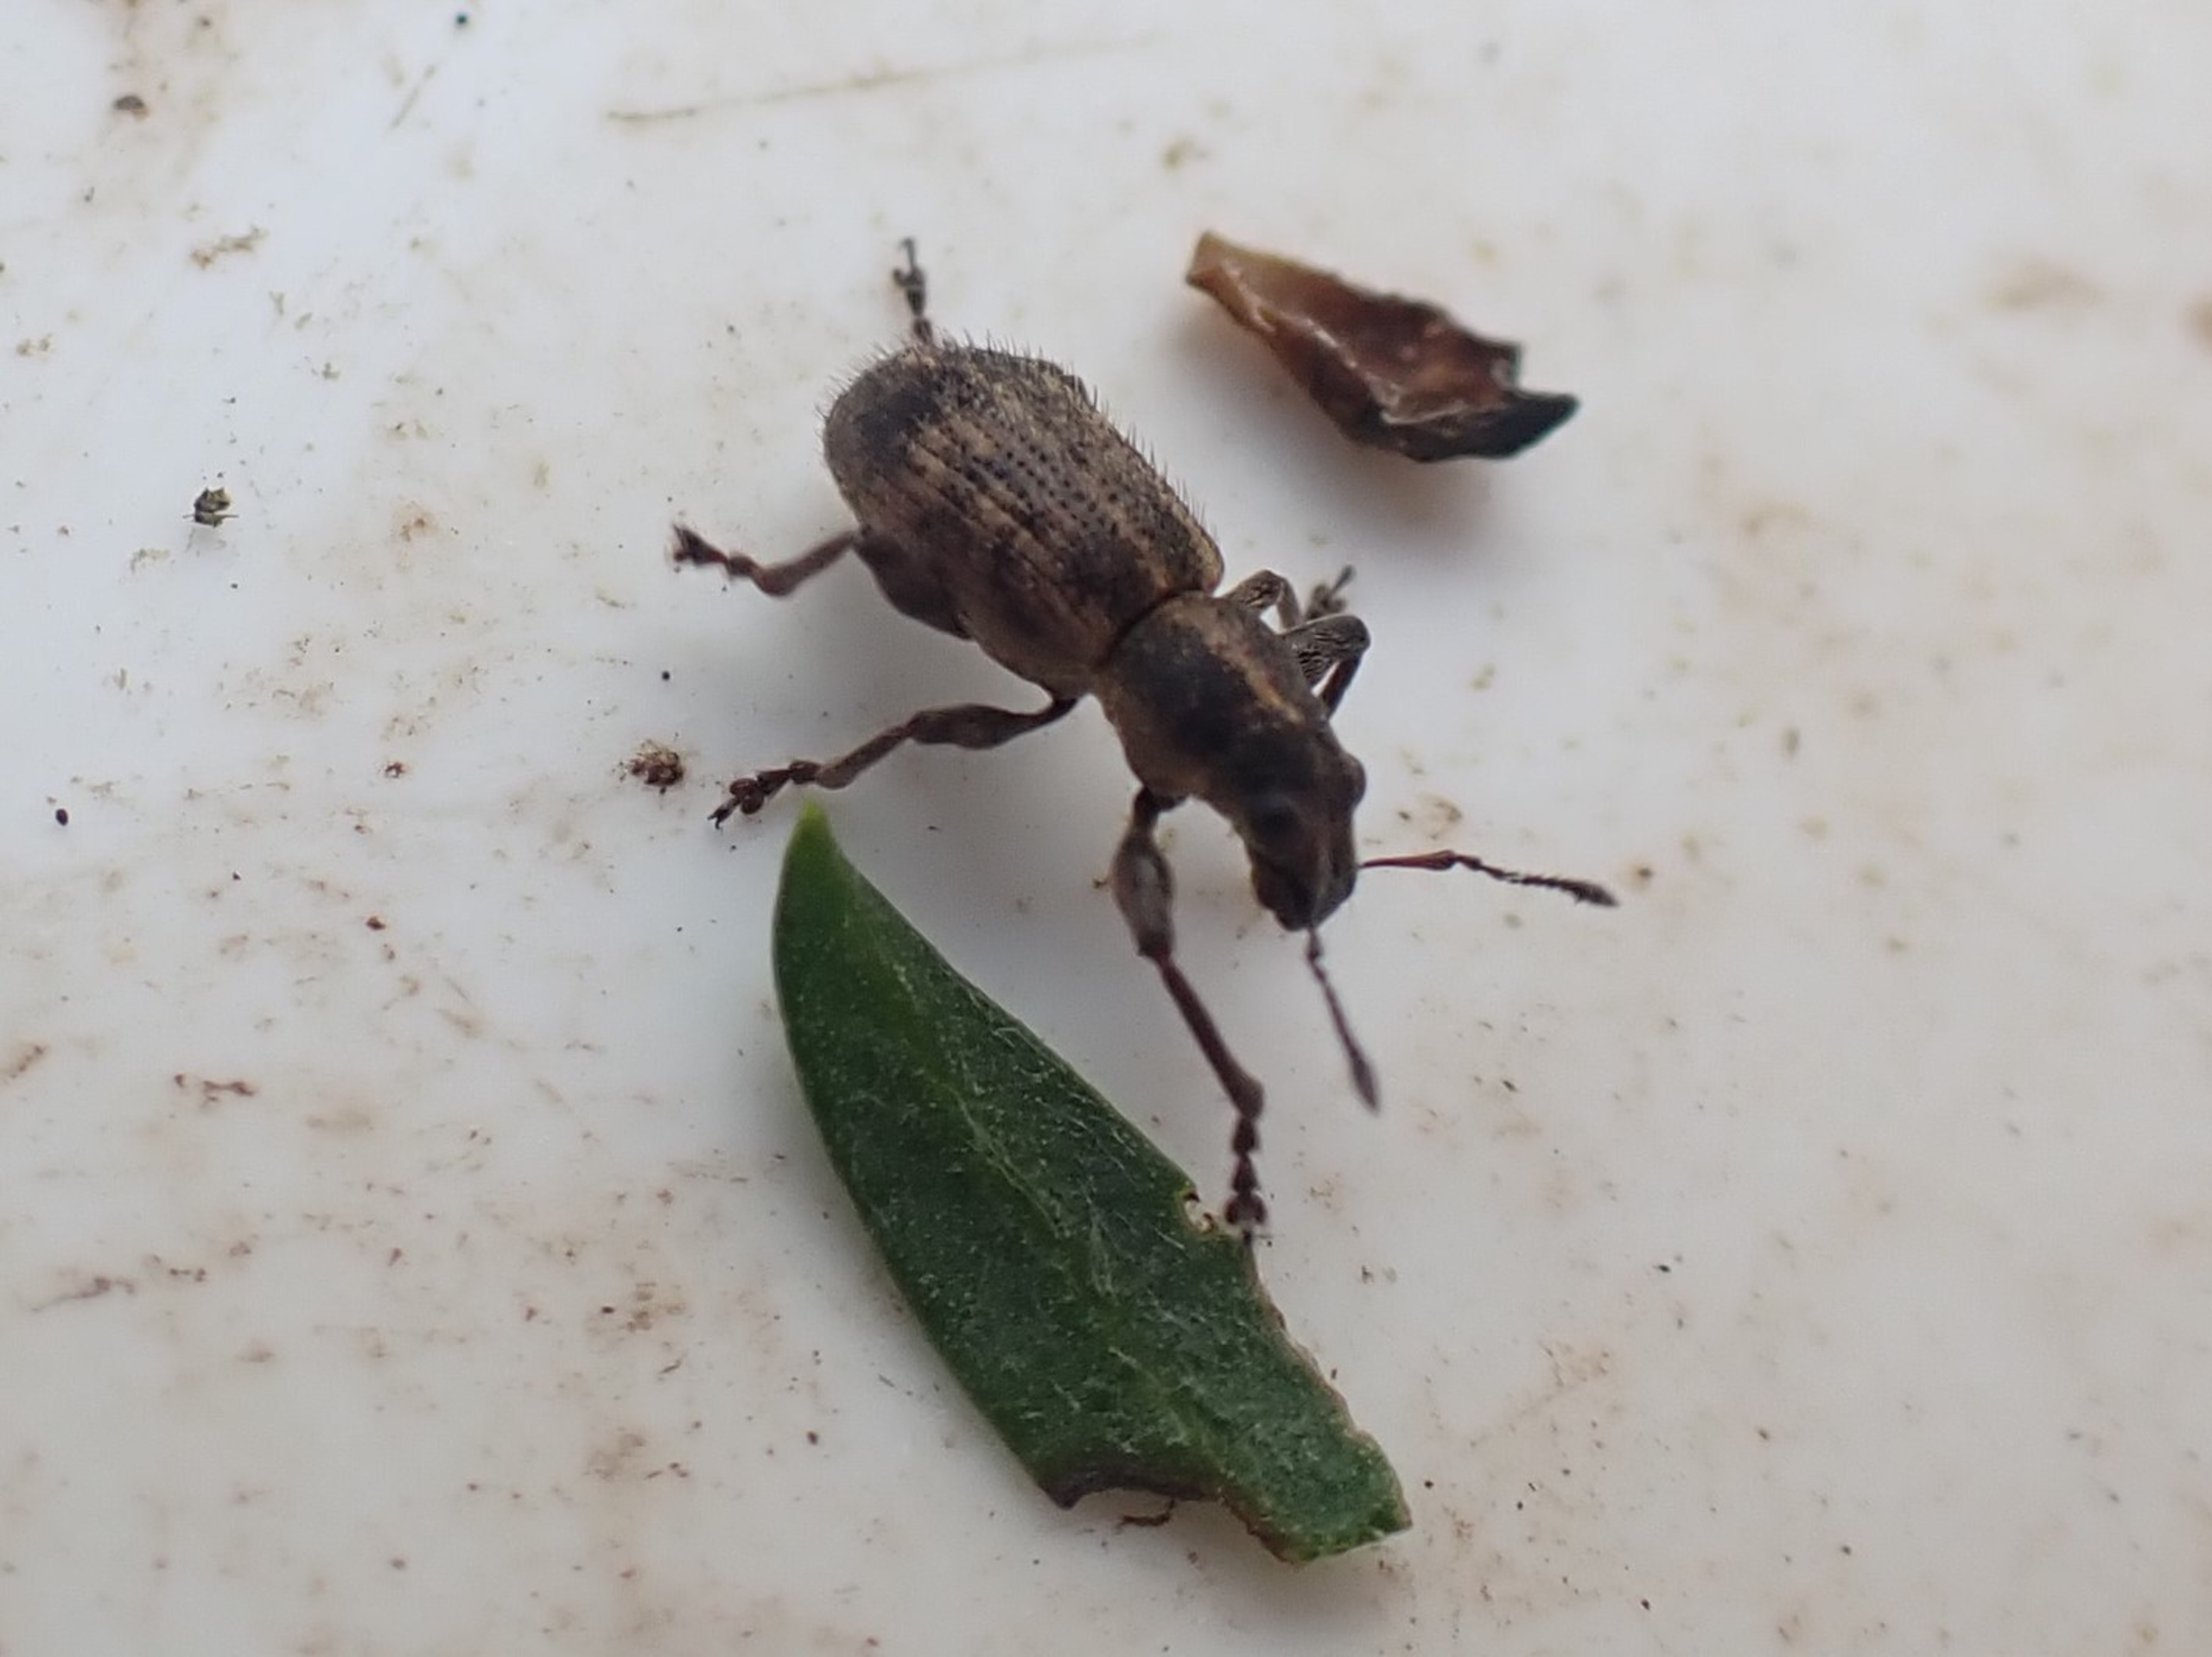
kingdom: Animalia
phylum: Arthropoda
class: Insecta
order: Coleoptera
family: Curculionidae
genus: Andrion
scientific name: Andrion regensteinense
